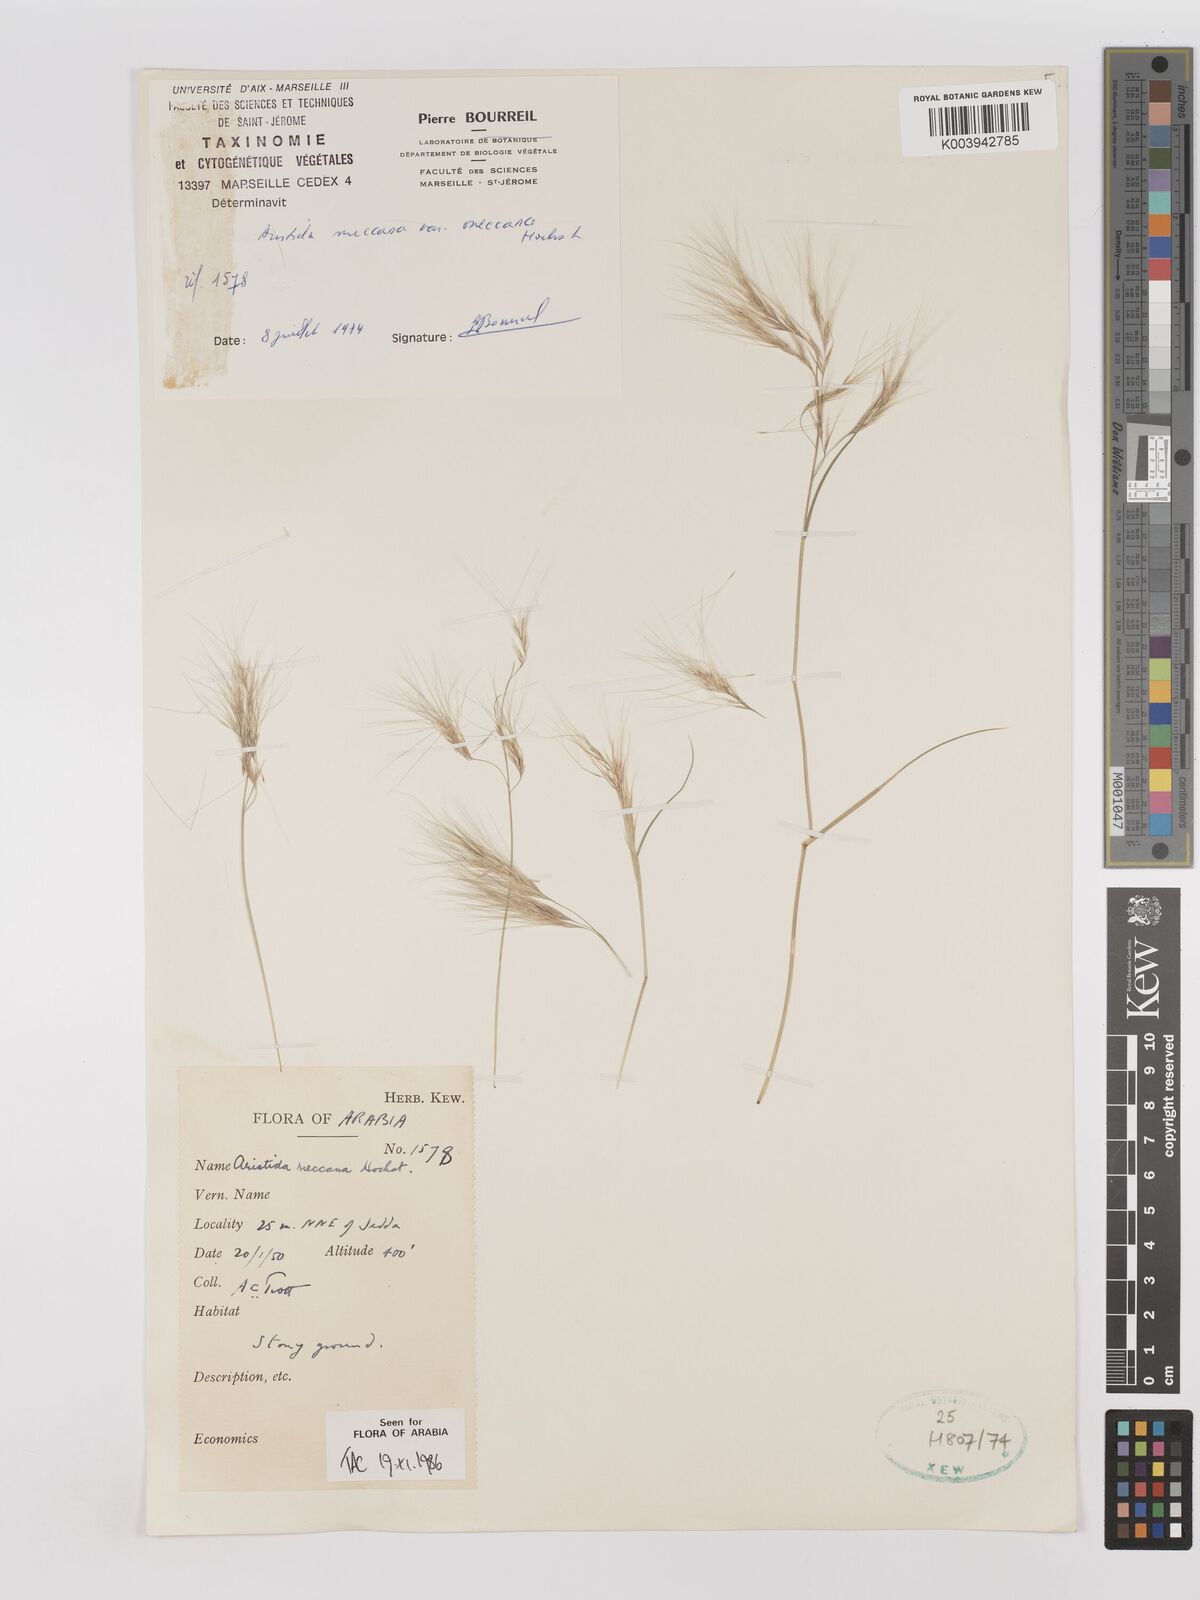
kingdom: Plantae
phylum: Tracheophyta
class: Liliopsida
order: Poales
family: Poaceae
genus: Aristida
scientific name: Aristida mutabilis
